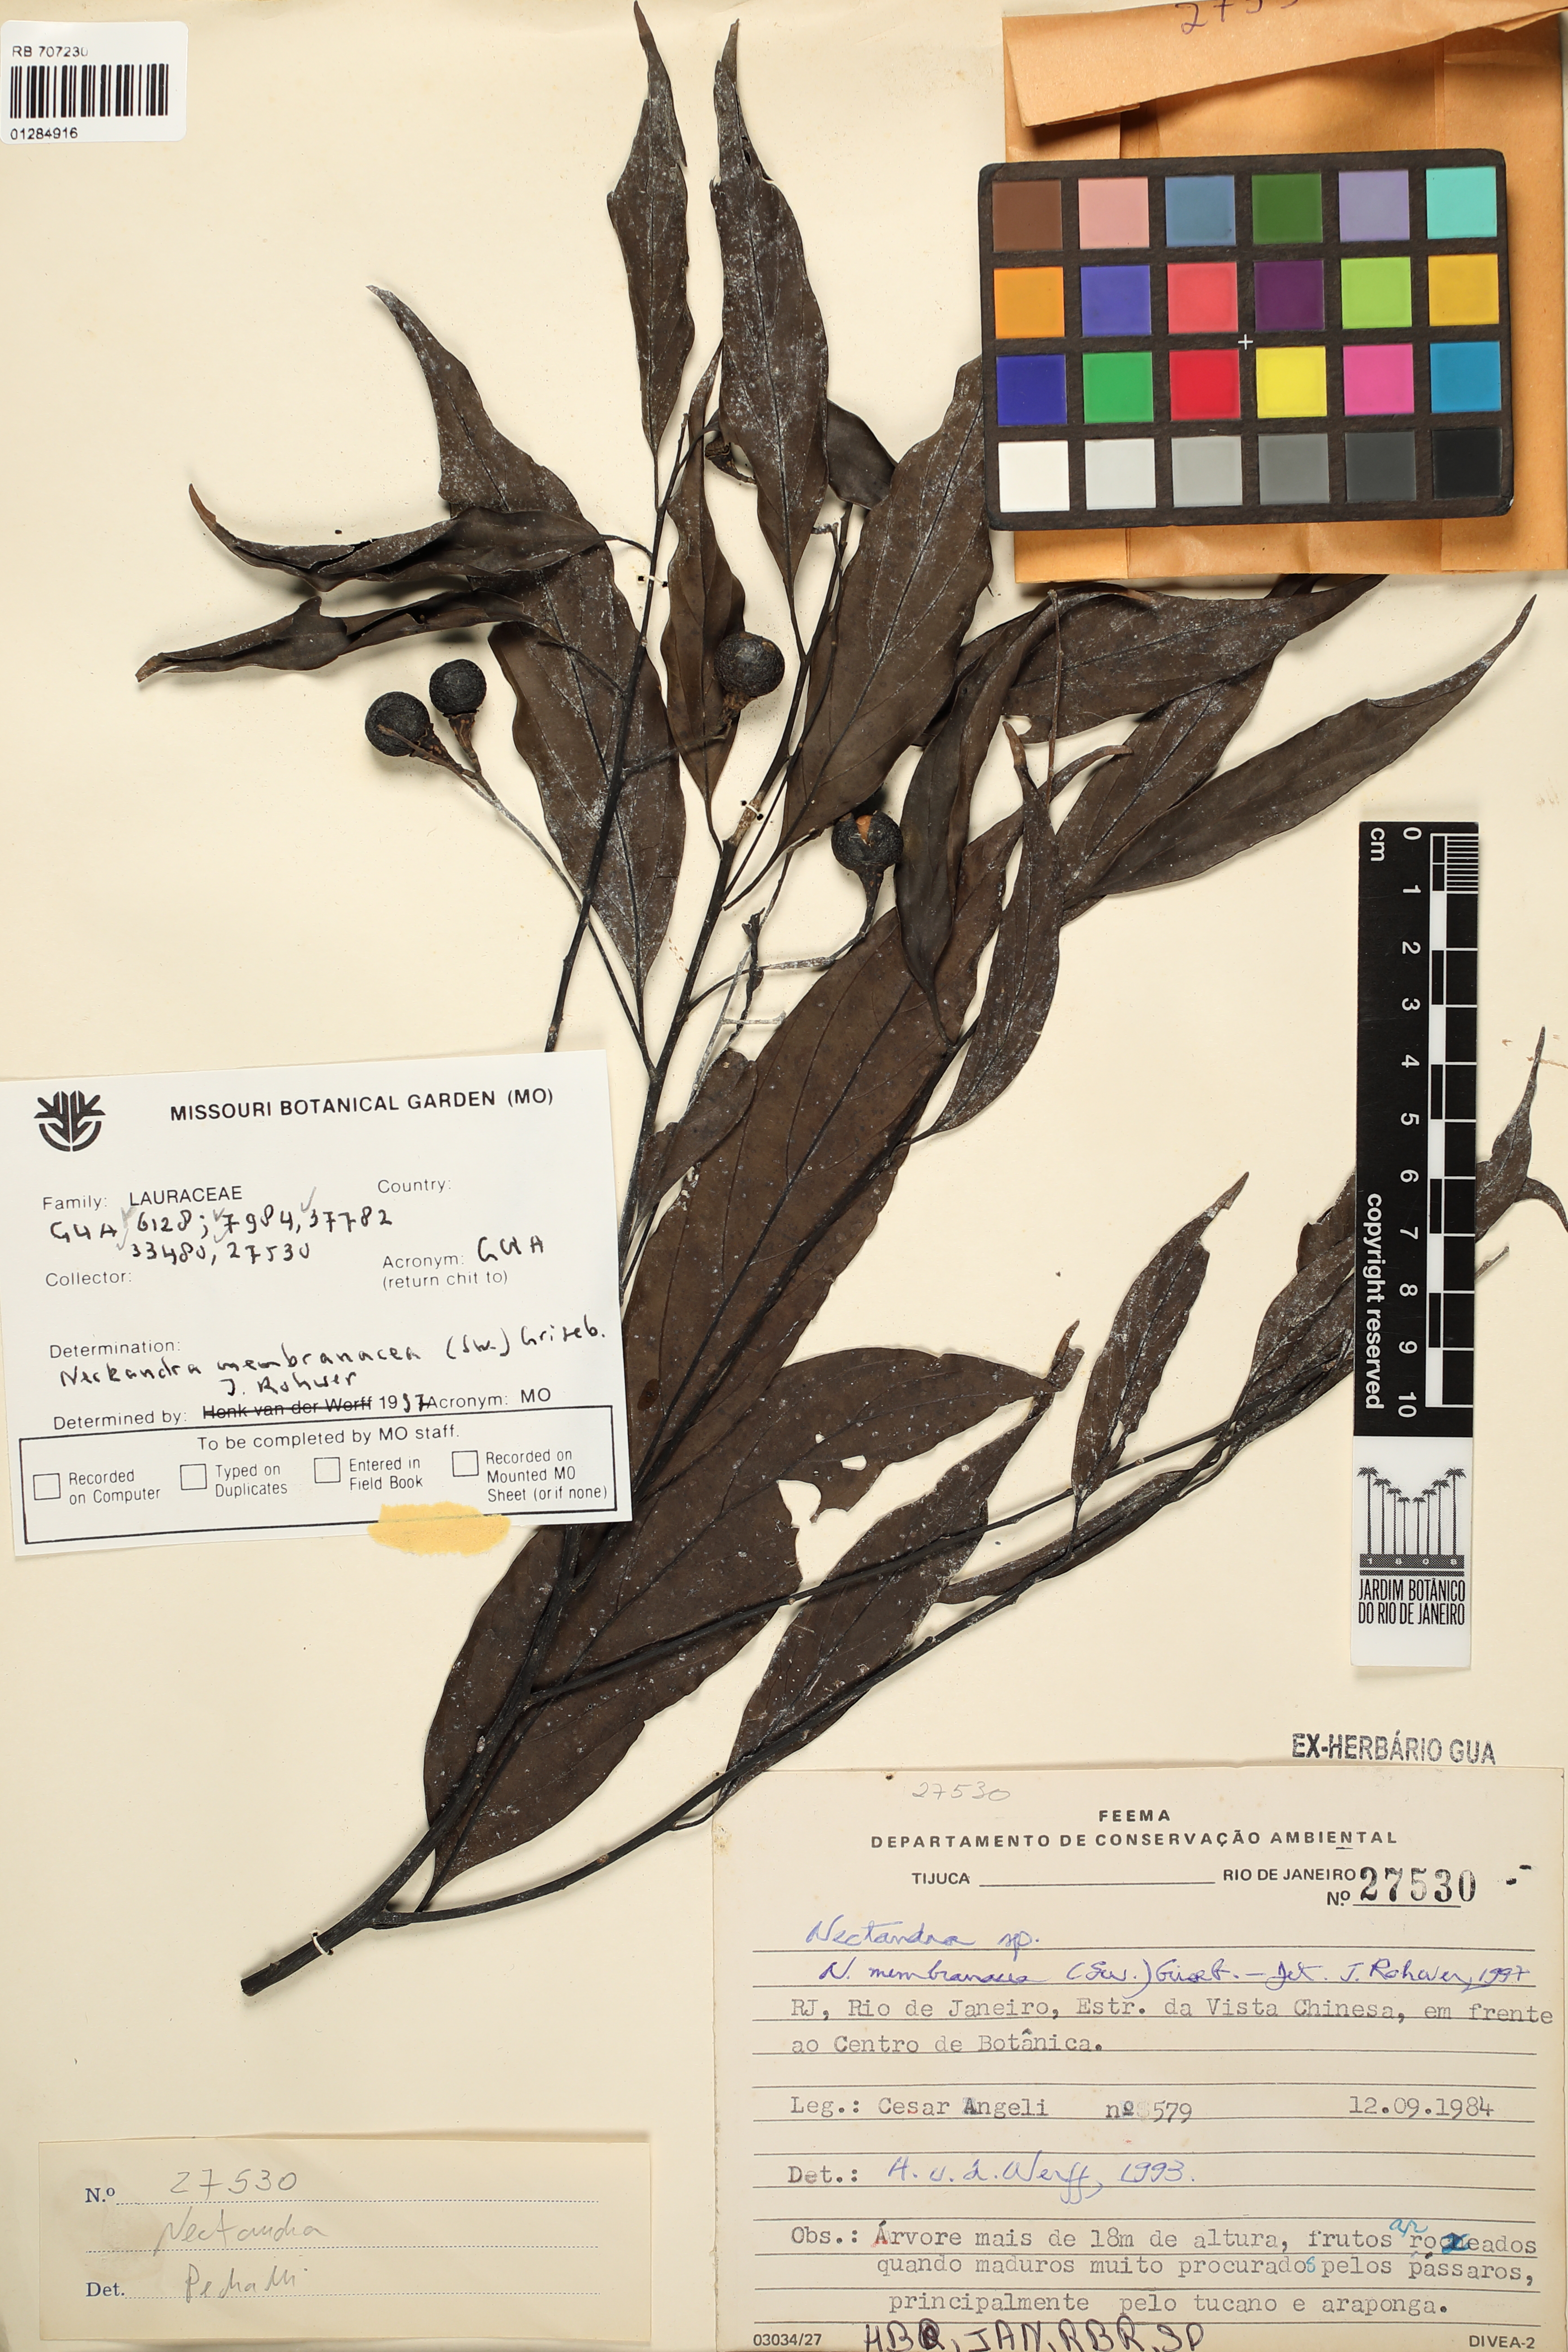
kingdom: Plantae
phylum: Tracheophyta
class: Magnoliopsida
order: Solanales
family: Solanaceae
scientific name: Solanaceae
